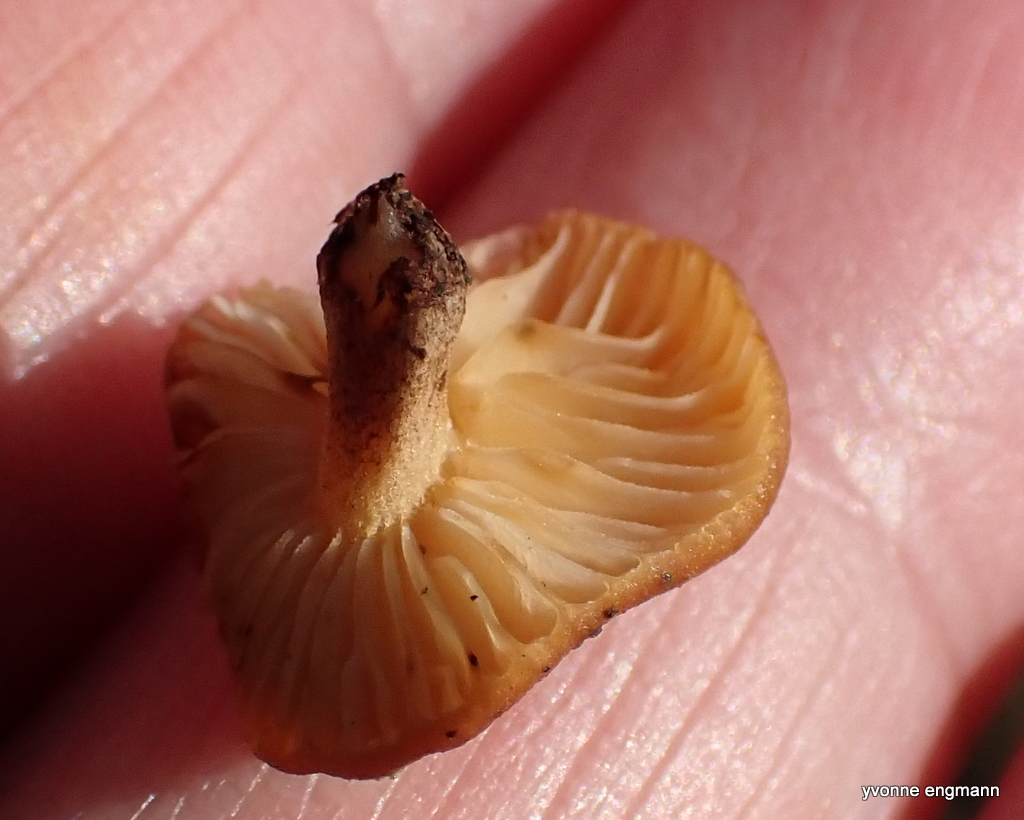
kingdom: Fungi
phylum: Basidiomycota
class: Agaricomycetes
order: Agaricales
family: Physalacriaceae
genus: Flammulina
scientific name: Flammulina
